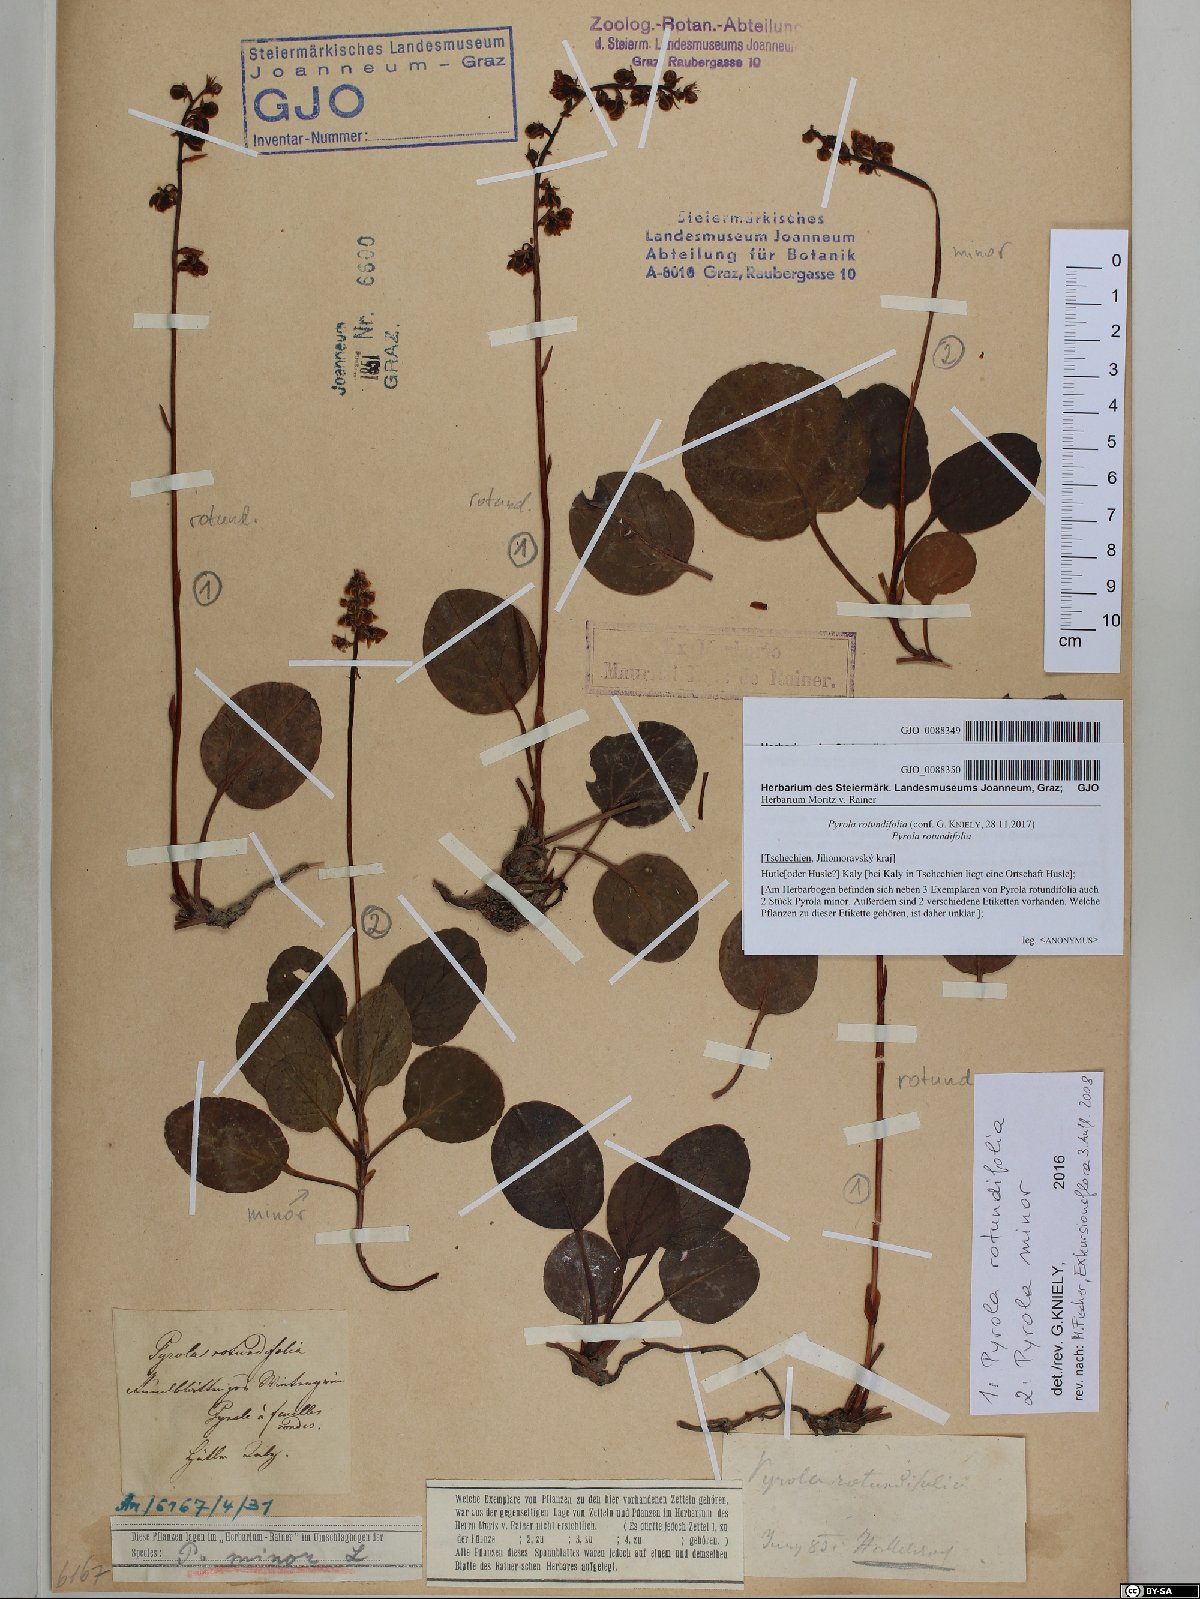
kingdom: Plantae
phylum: Tracheophyta
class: Magnoliopsida
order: Ericales
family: Ericaceae
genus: Pyrola
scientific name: Pyrola rotundifolia
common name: Round-leaved wintergreen
